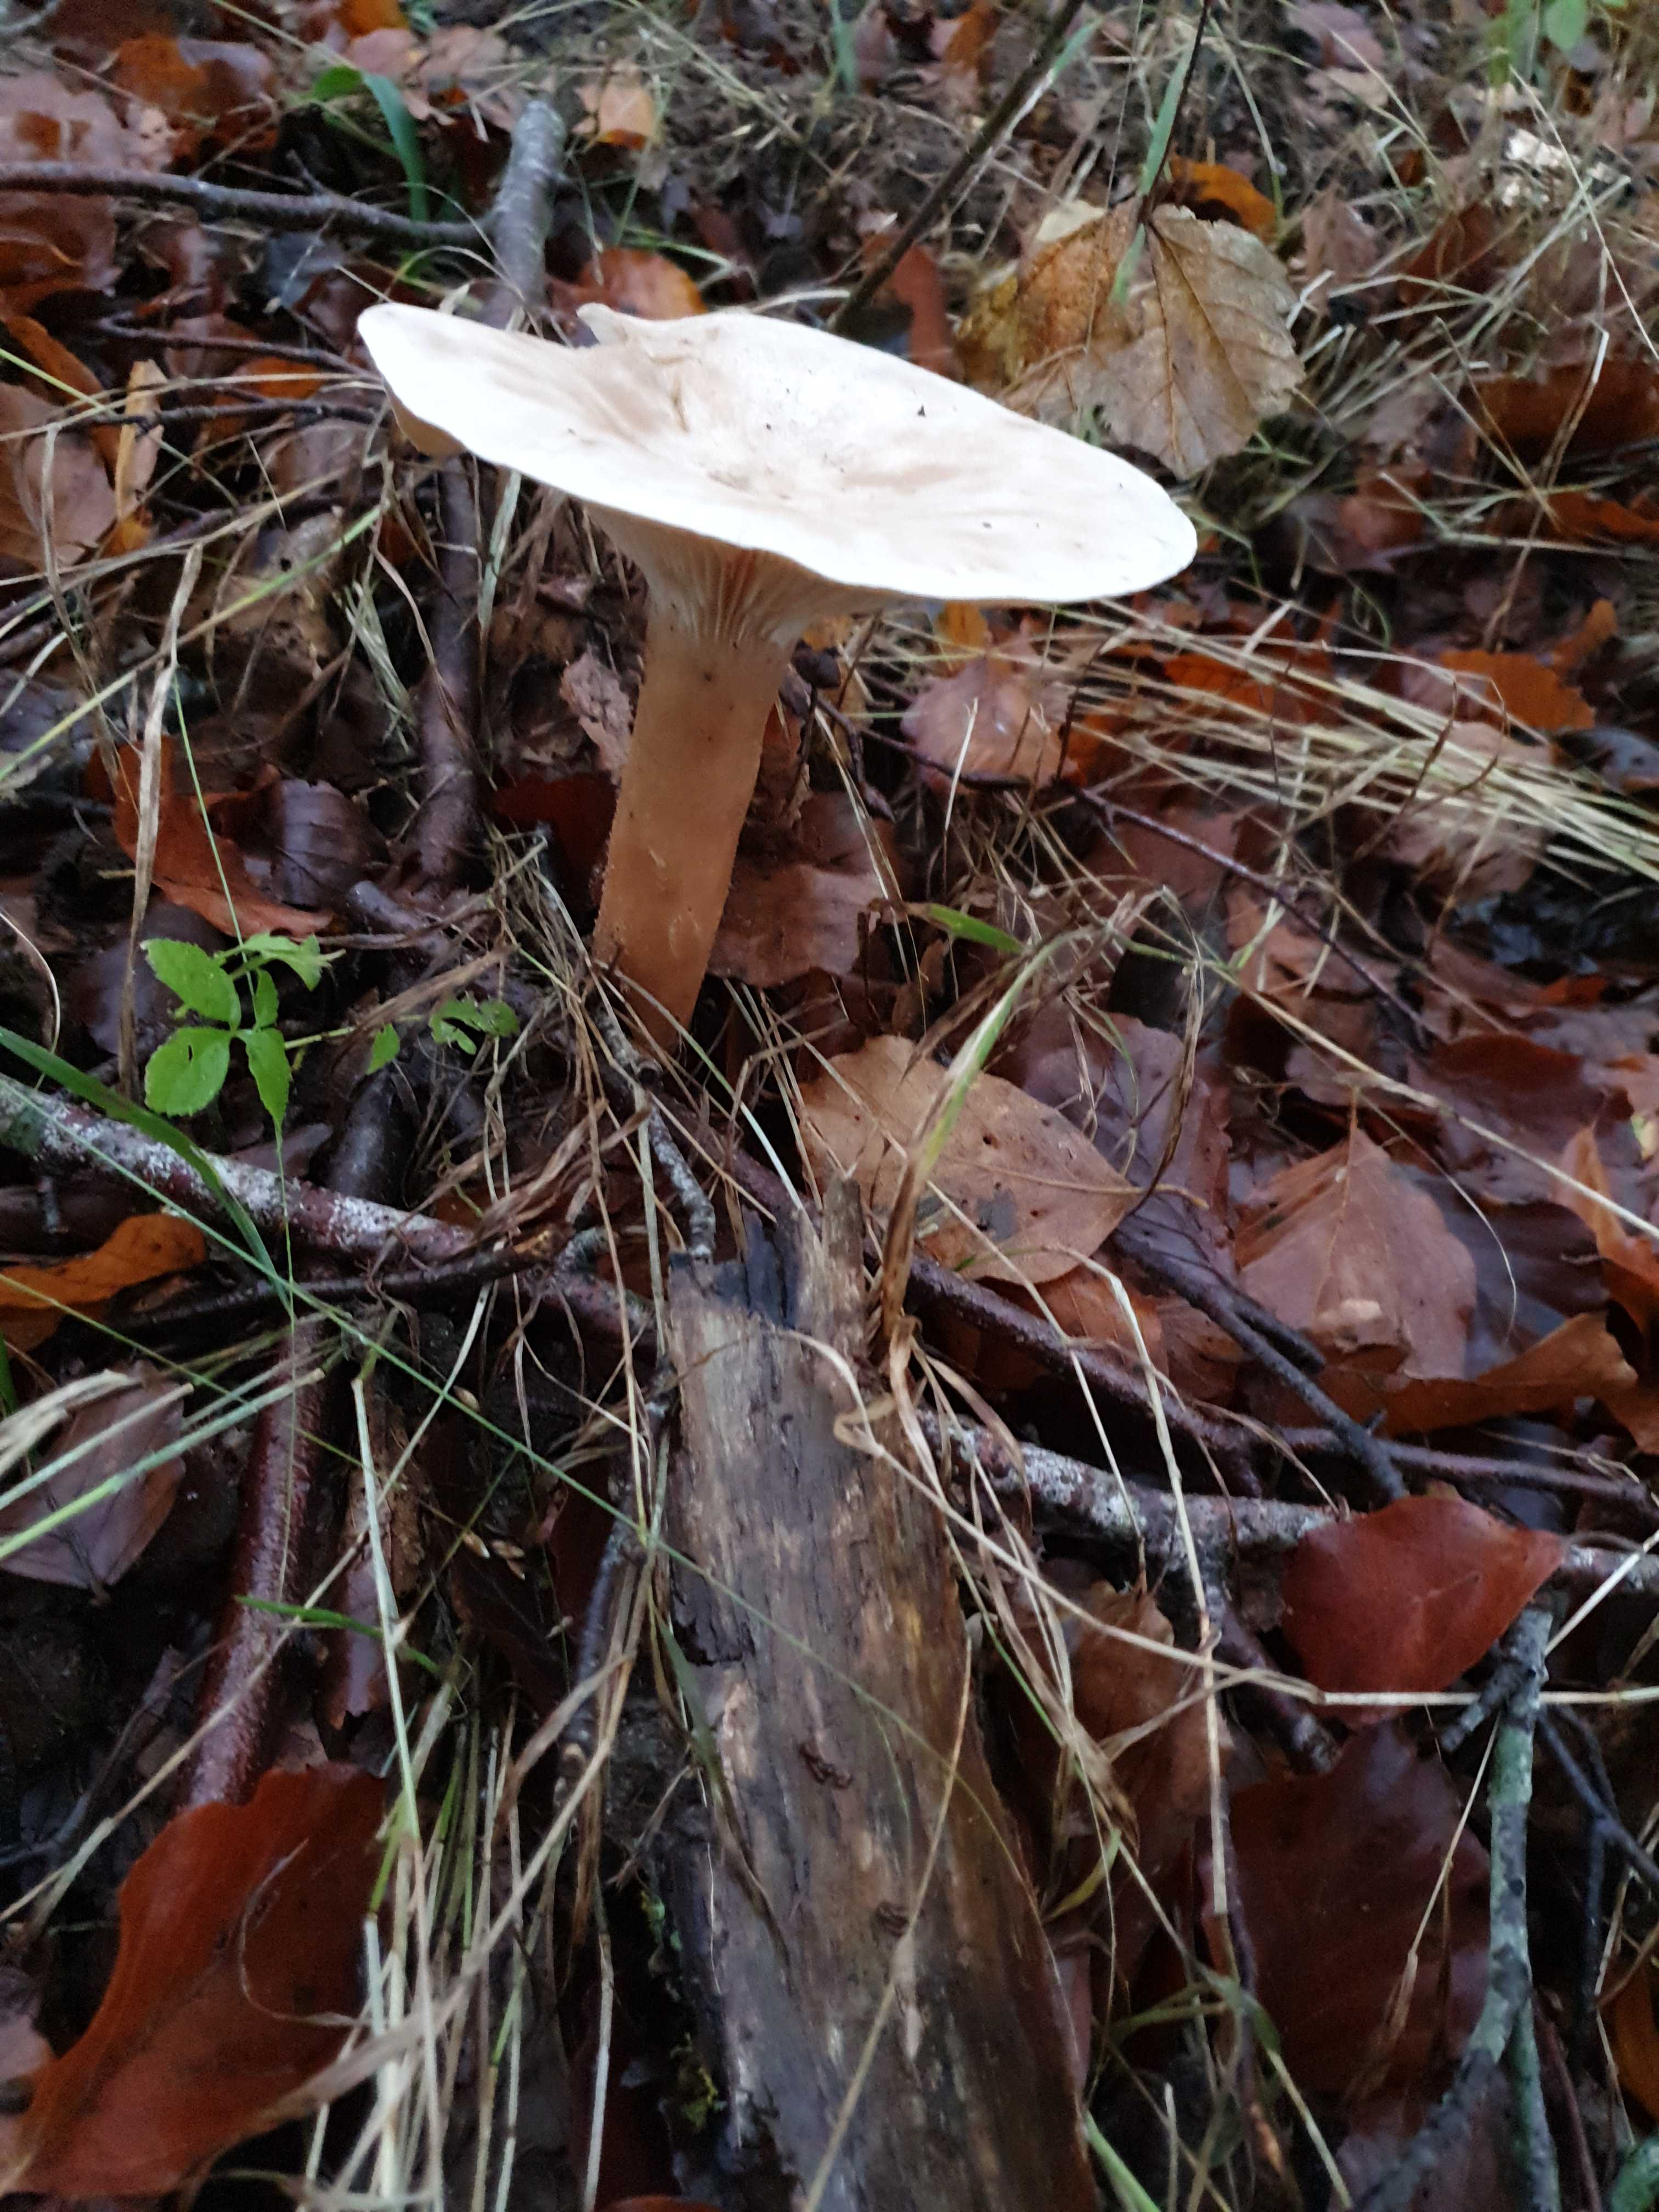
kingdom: Fungi
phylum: Basidiomycota
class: Agaricomycetes
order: Agaricales
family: Tricholomataceae
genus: Infundibulicybe
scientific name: Infundibulicybe geotropa
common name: stor tragthat
